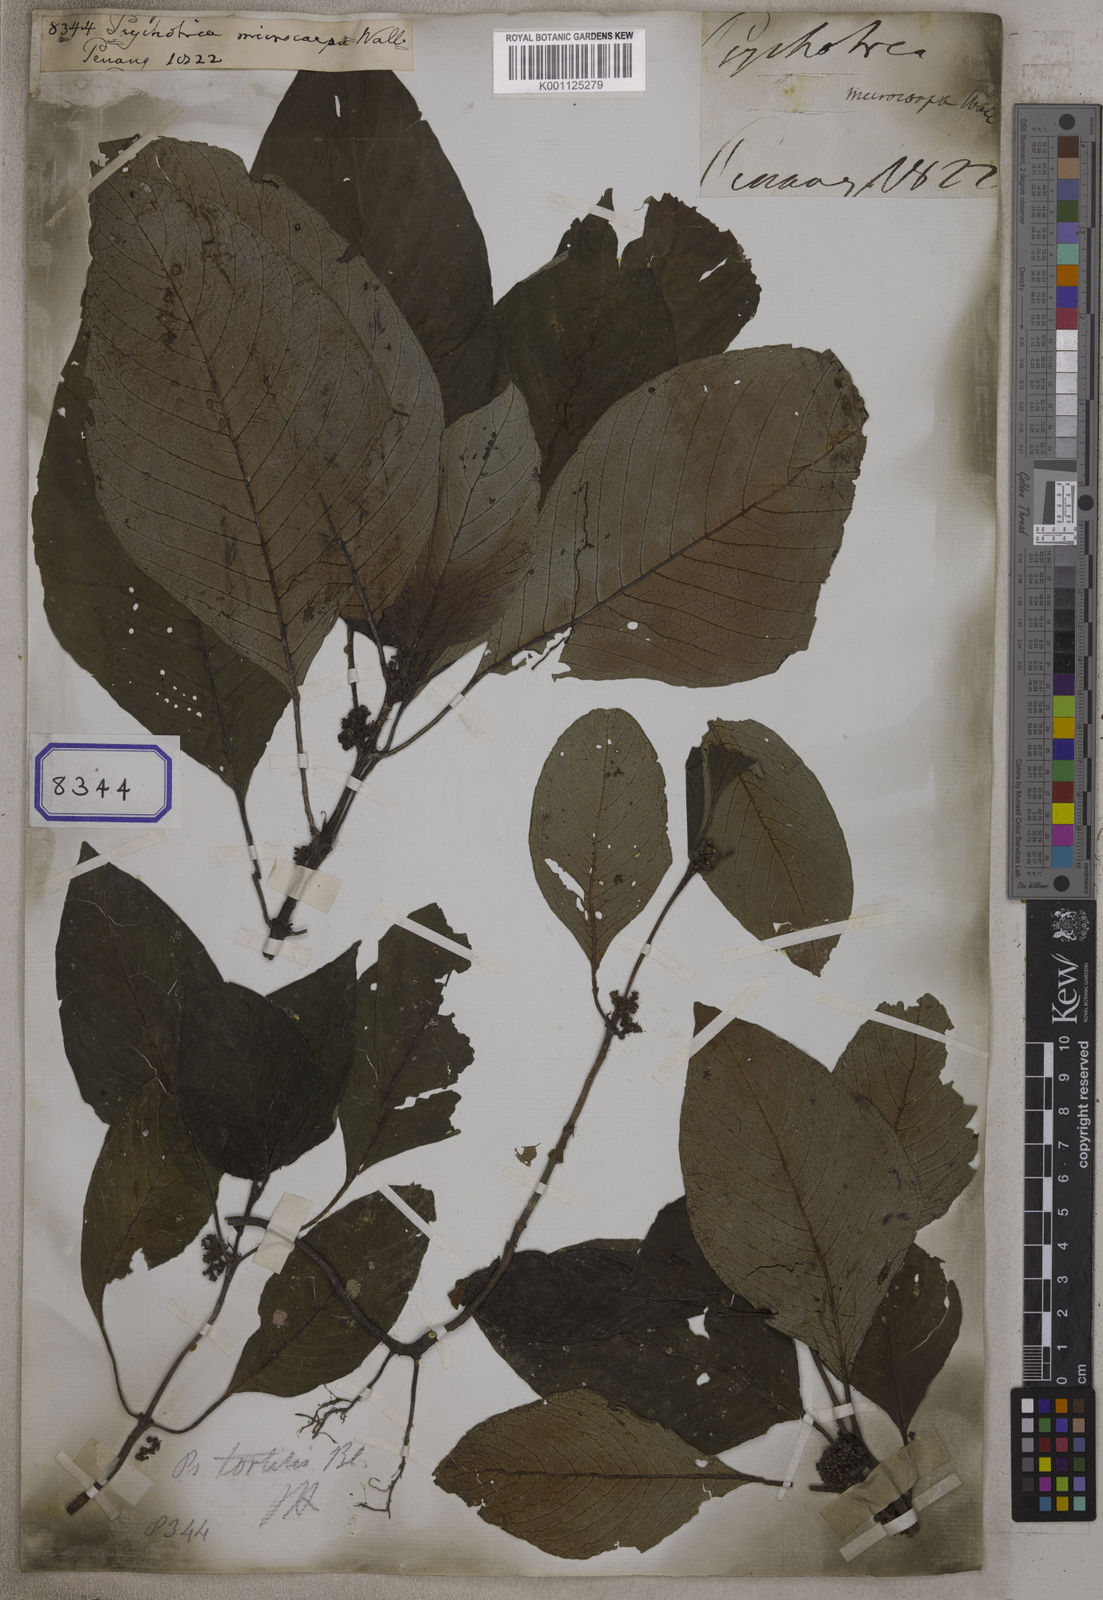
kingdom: Plantae
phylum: Tracheophyta
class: Magnoliopsida
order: Gentianales
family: Rubiaceae
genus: Streblosa
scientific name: Streblosa tortilis
